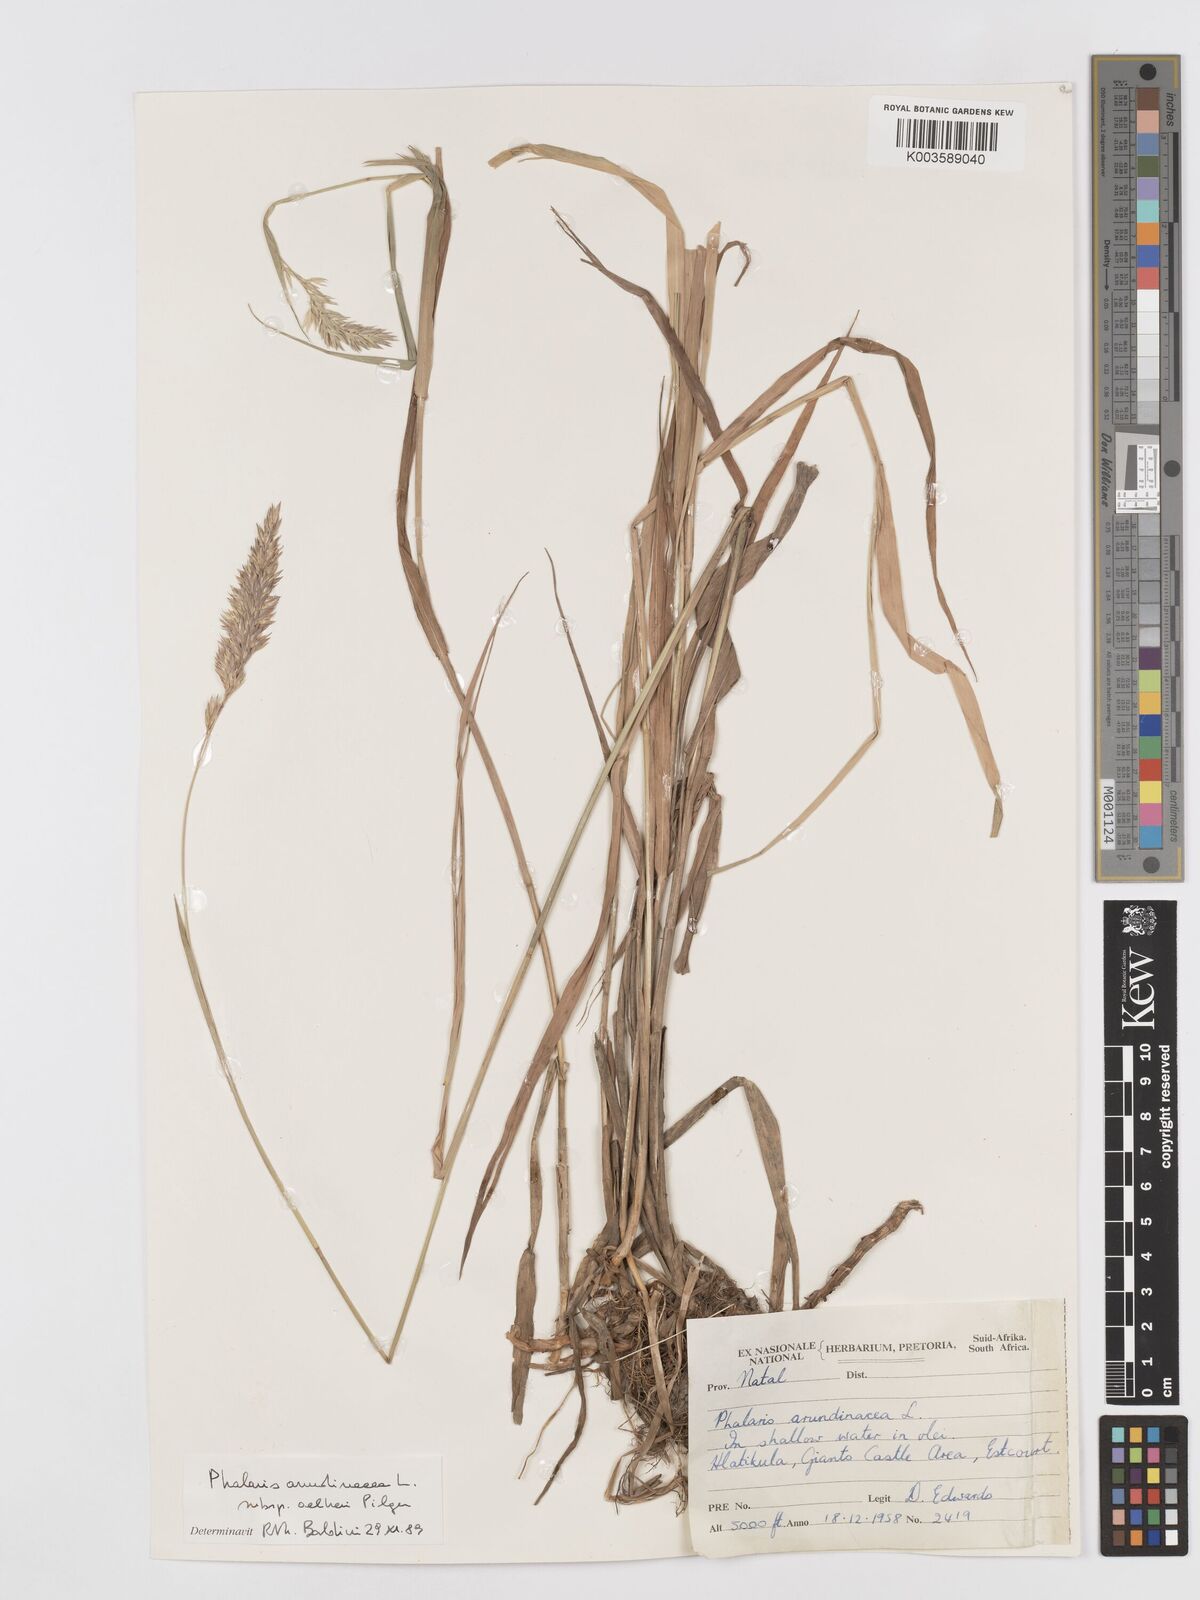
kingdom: Plantae
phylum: Tracheophyta
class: Liliopsida
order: Poales
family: Poaceae
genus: Phalaris
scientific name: Phalaris arundinacea
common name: Reed canary-grass
